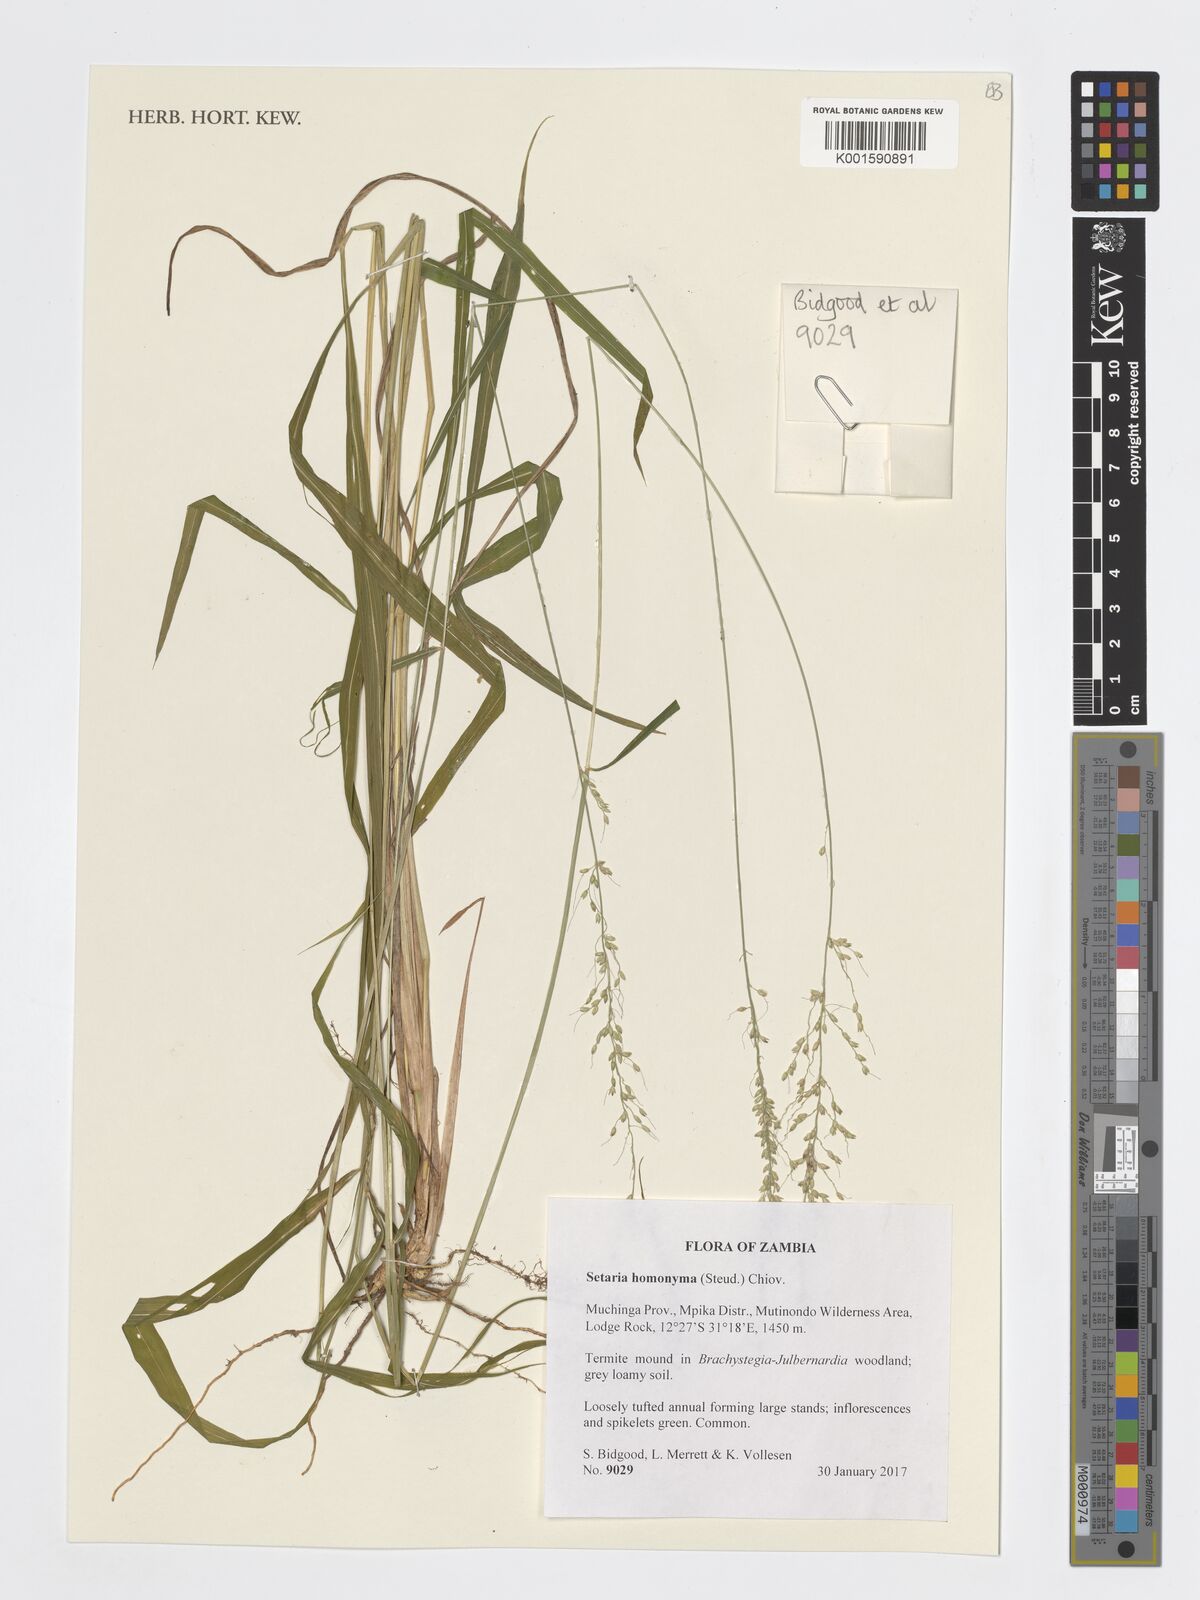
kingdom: Plantae
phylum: Tracheophyta
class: Liliopsida
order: Poales
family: Poaceae
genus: Setaria
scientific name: Setaria homonyma
